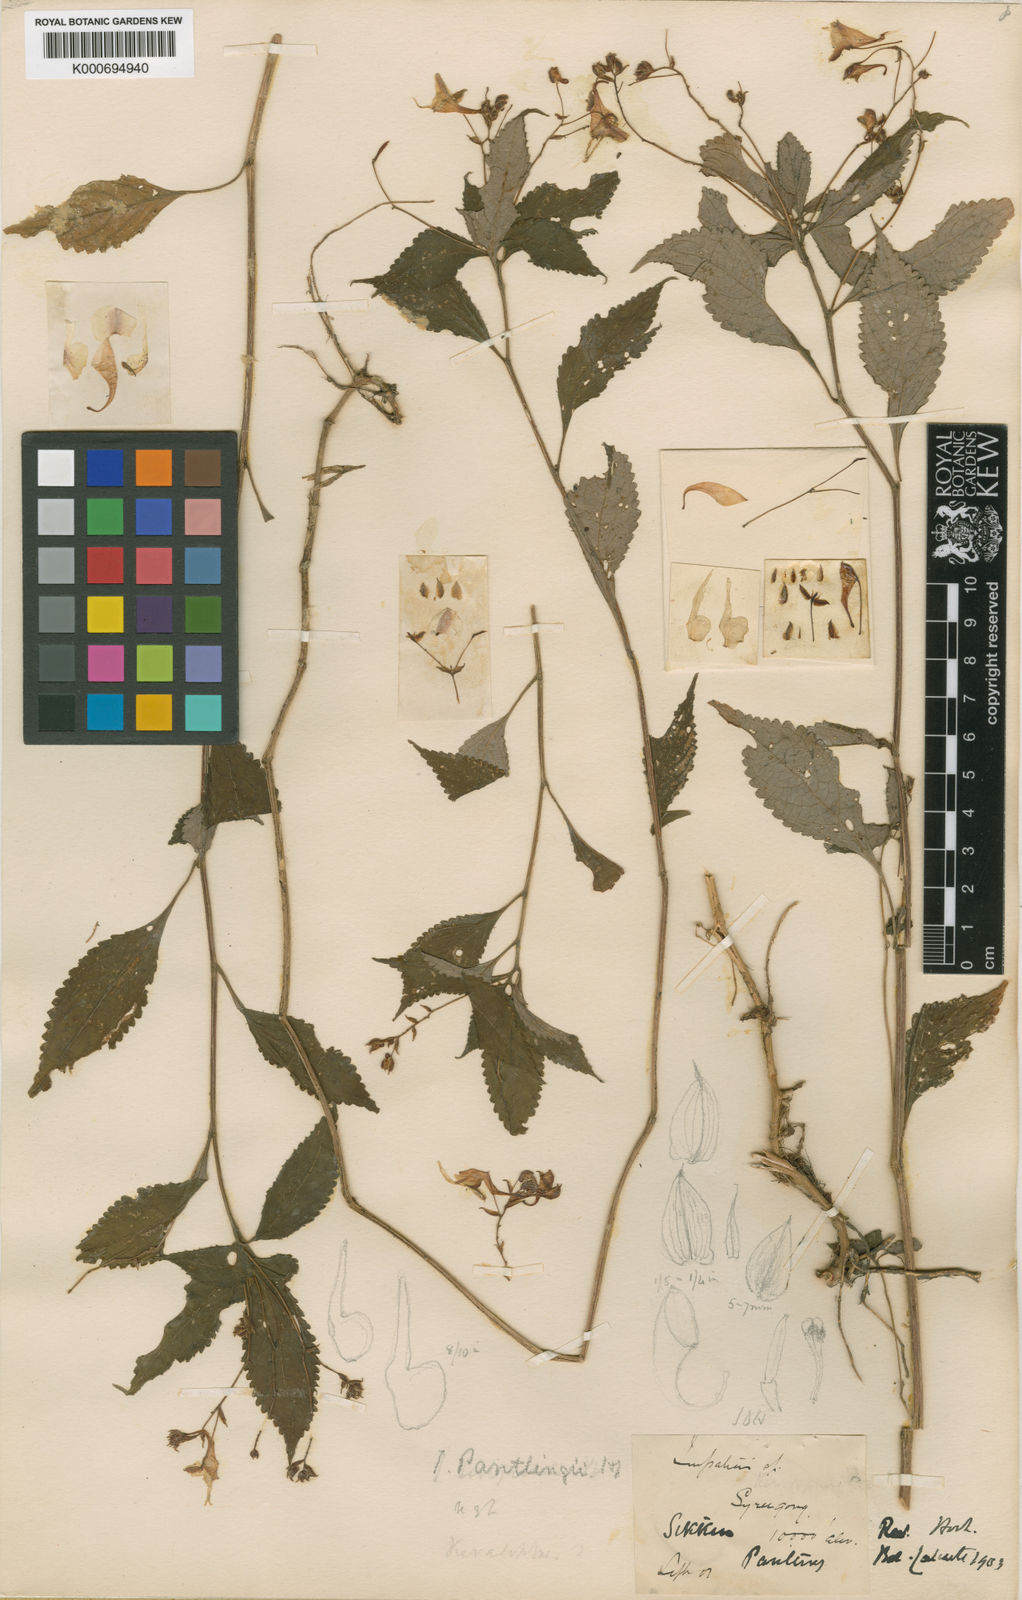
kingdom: Plantae
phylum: Tracheophyta
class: Magnoliopsida
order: Ericales
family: Balsaminaceae
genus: Impatiens
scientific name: Impatiens scitula
